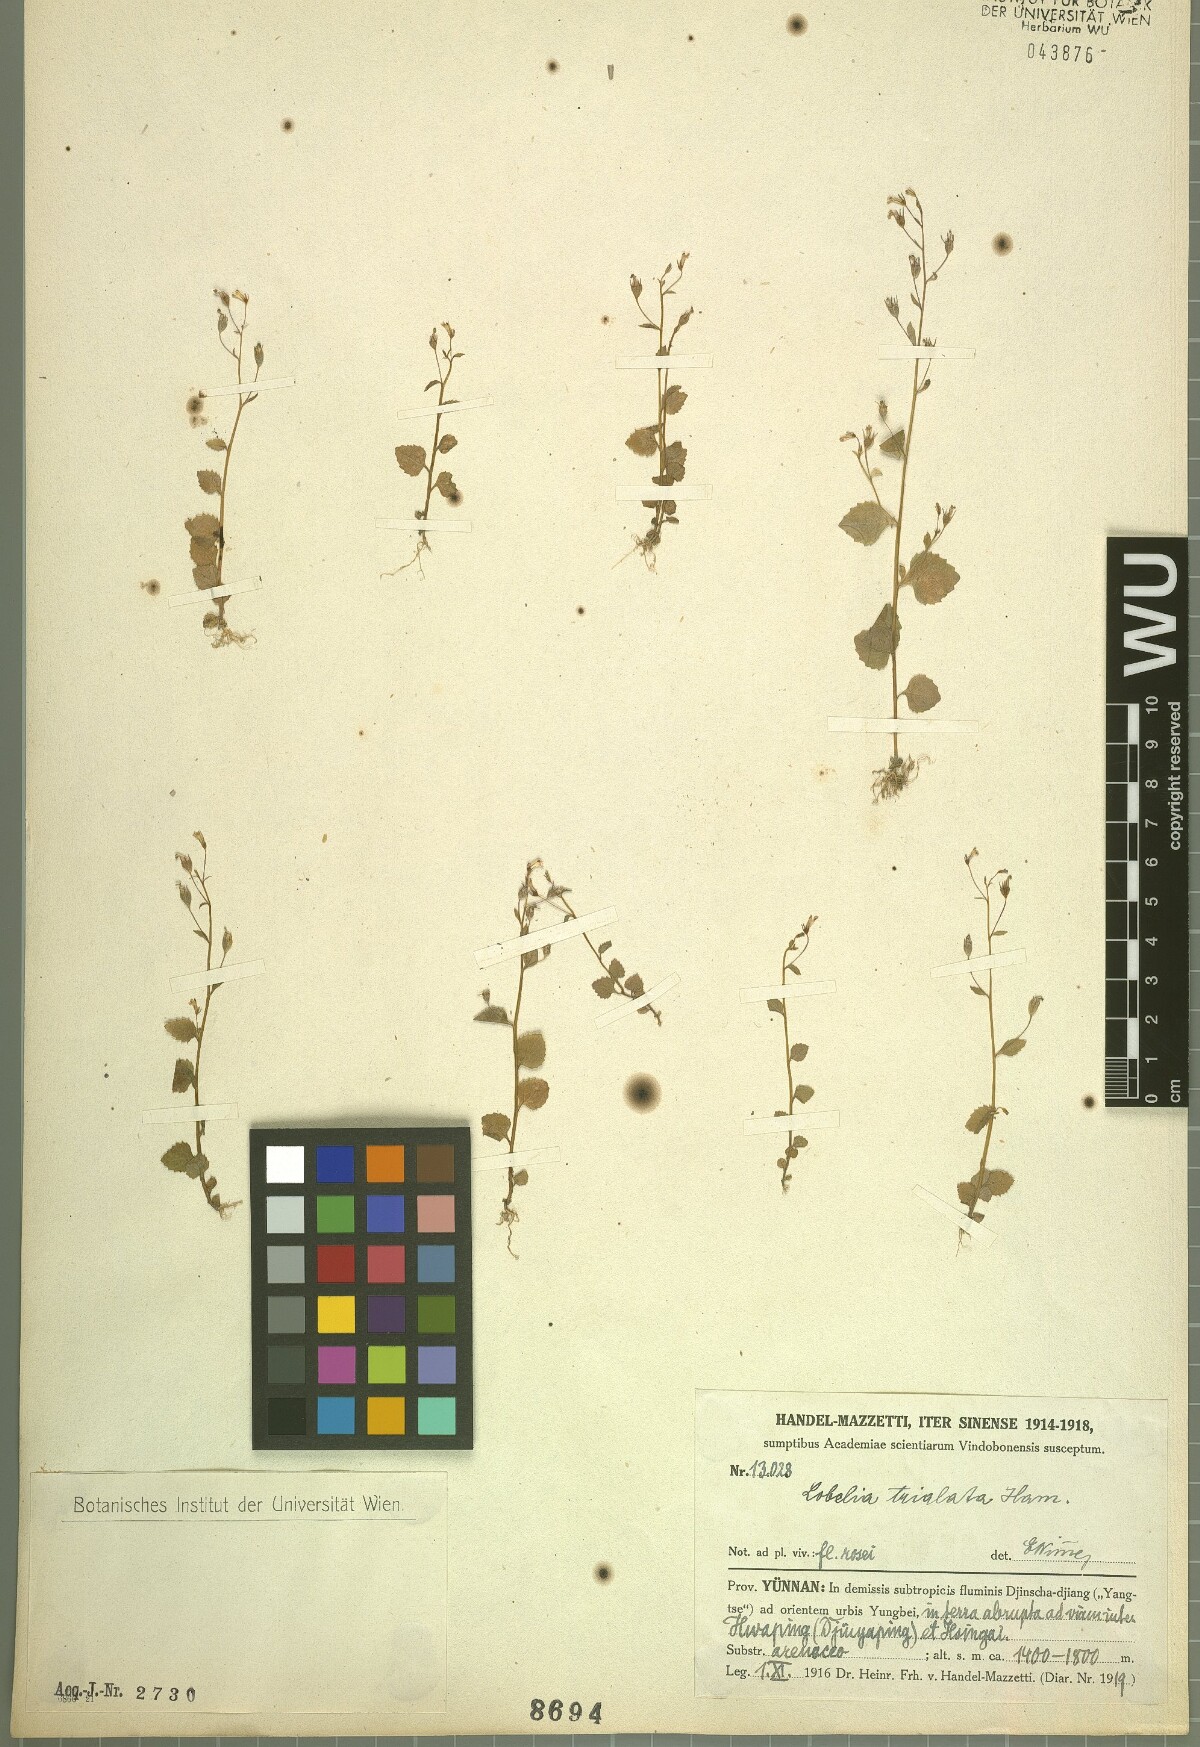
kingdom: Plantae
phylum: Tracheophyta
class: Magnoliopsida
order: Asterales
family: Campanulaceae
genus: Lobelia
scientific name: Lobelia trialata
